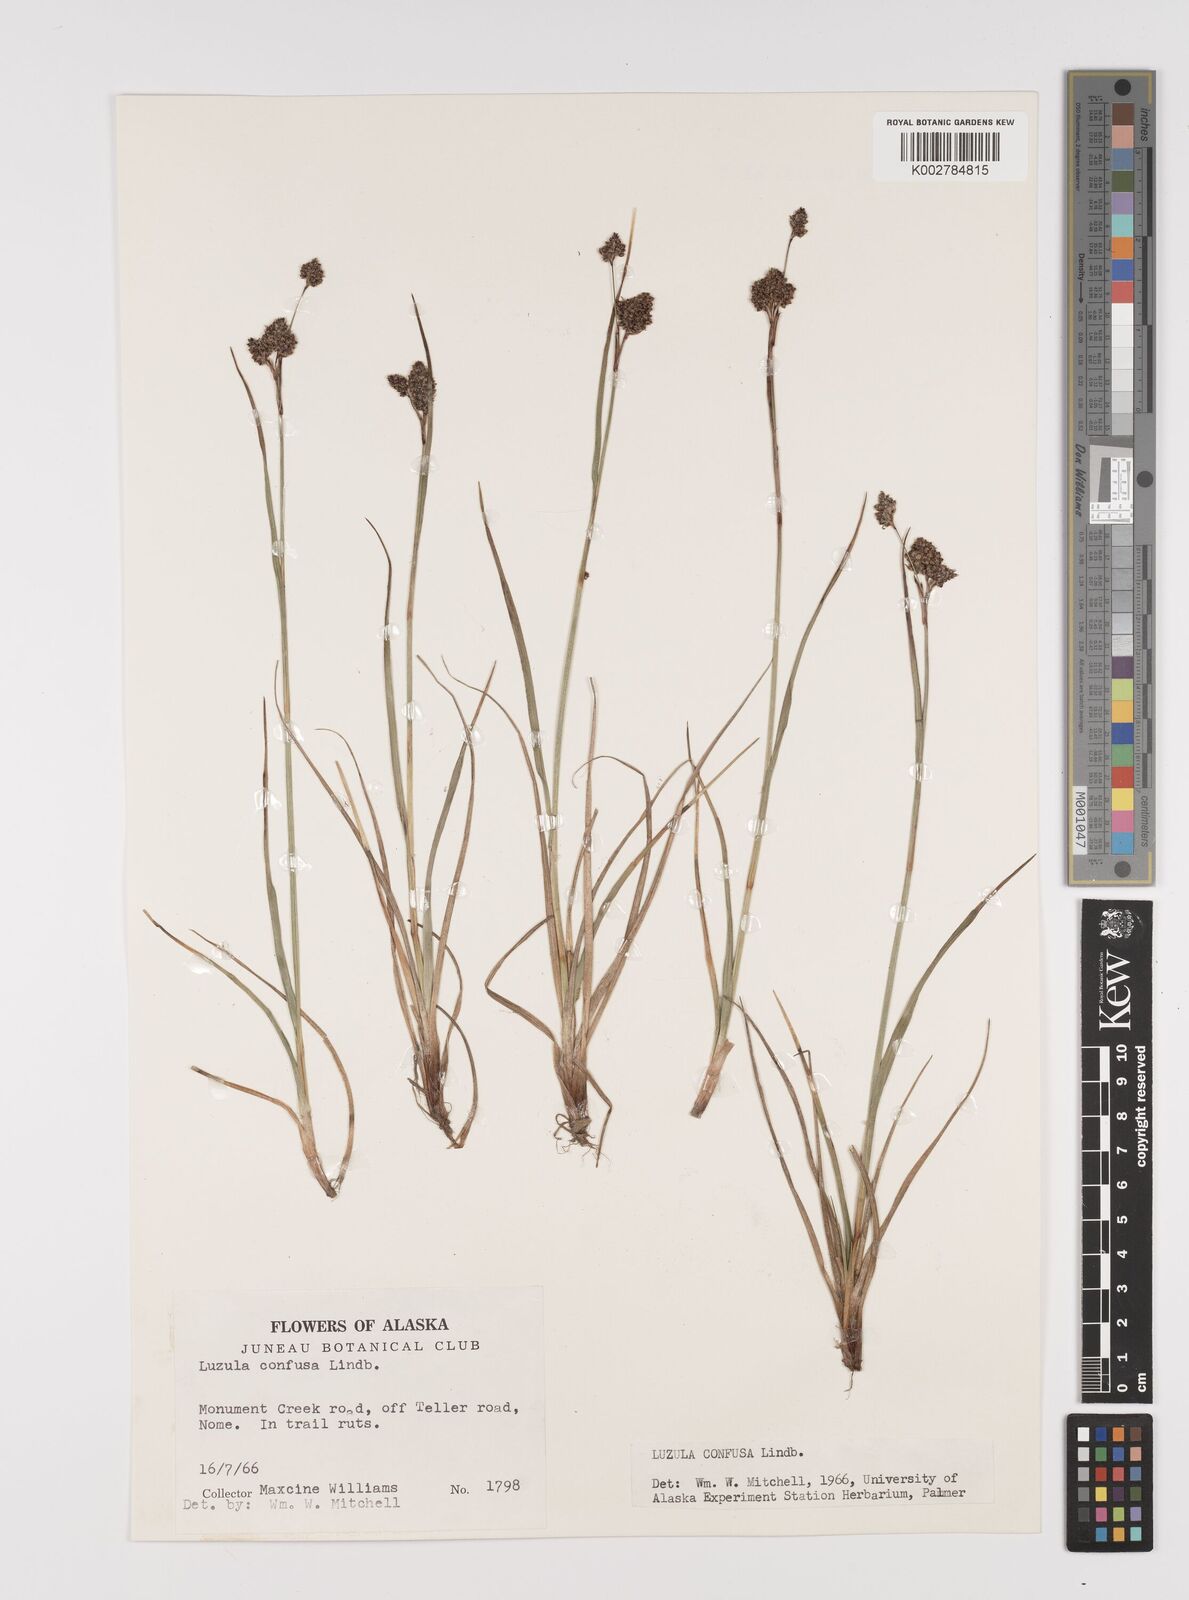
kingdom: Plantae
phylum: Tracheophyta
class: Liliopsida
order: Poales
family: Juncaceae
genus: Luzula
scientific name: Luzula confusa
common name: Northern wood rush
